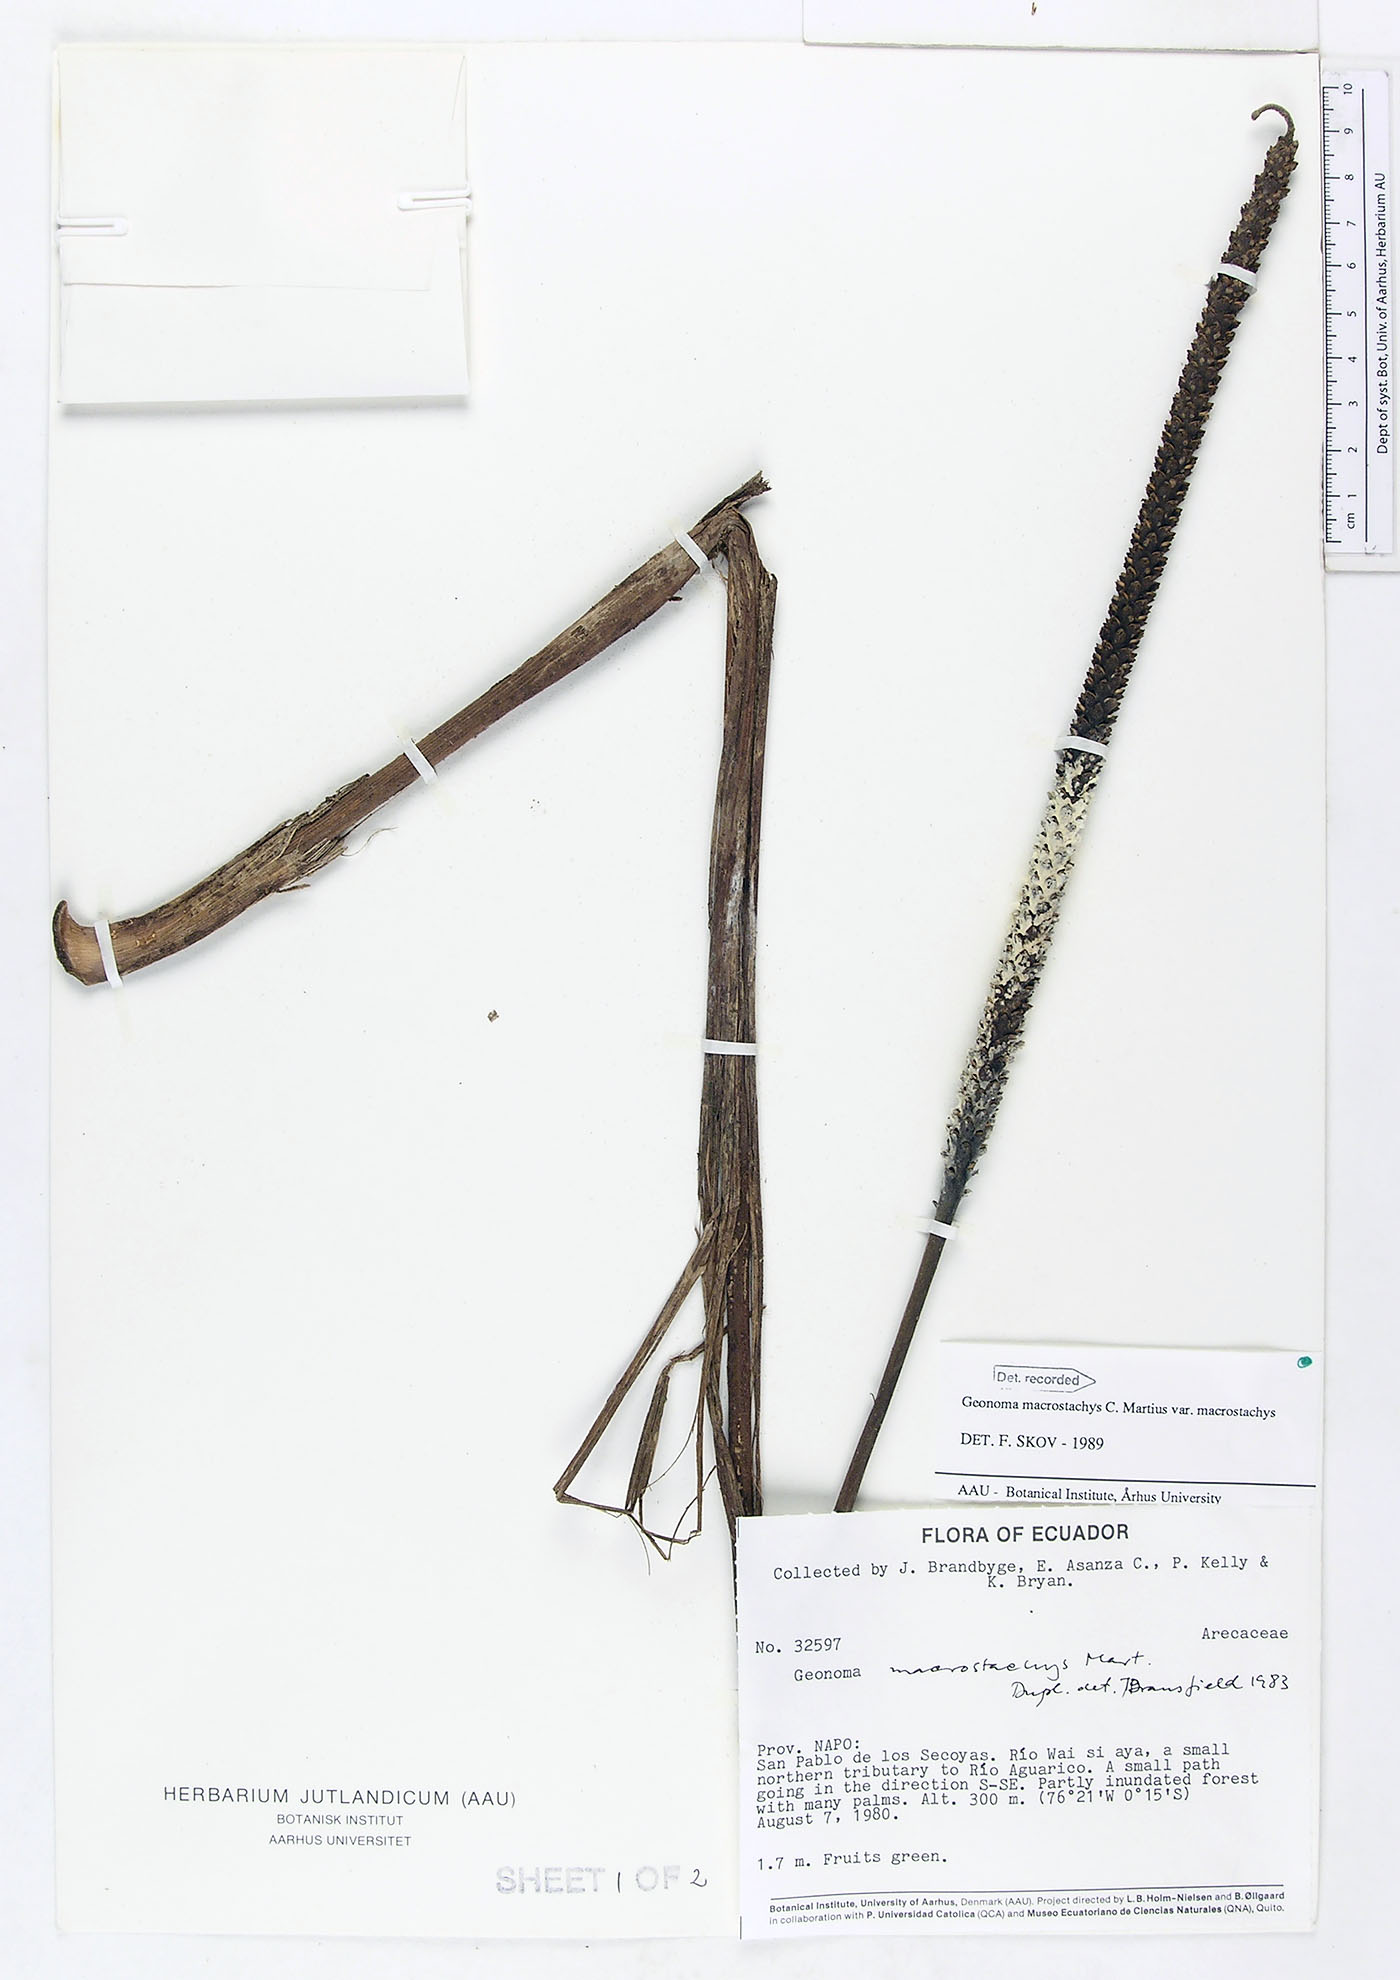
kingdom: Plantae
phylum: Tracheophyta
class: Liliopsida
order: Arecales
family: Arecaceae
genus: Geonoma
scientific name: Geonoma macrostachys
